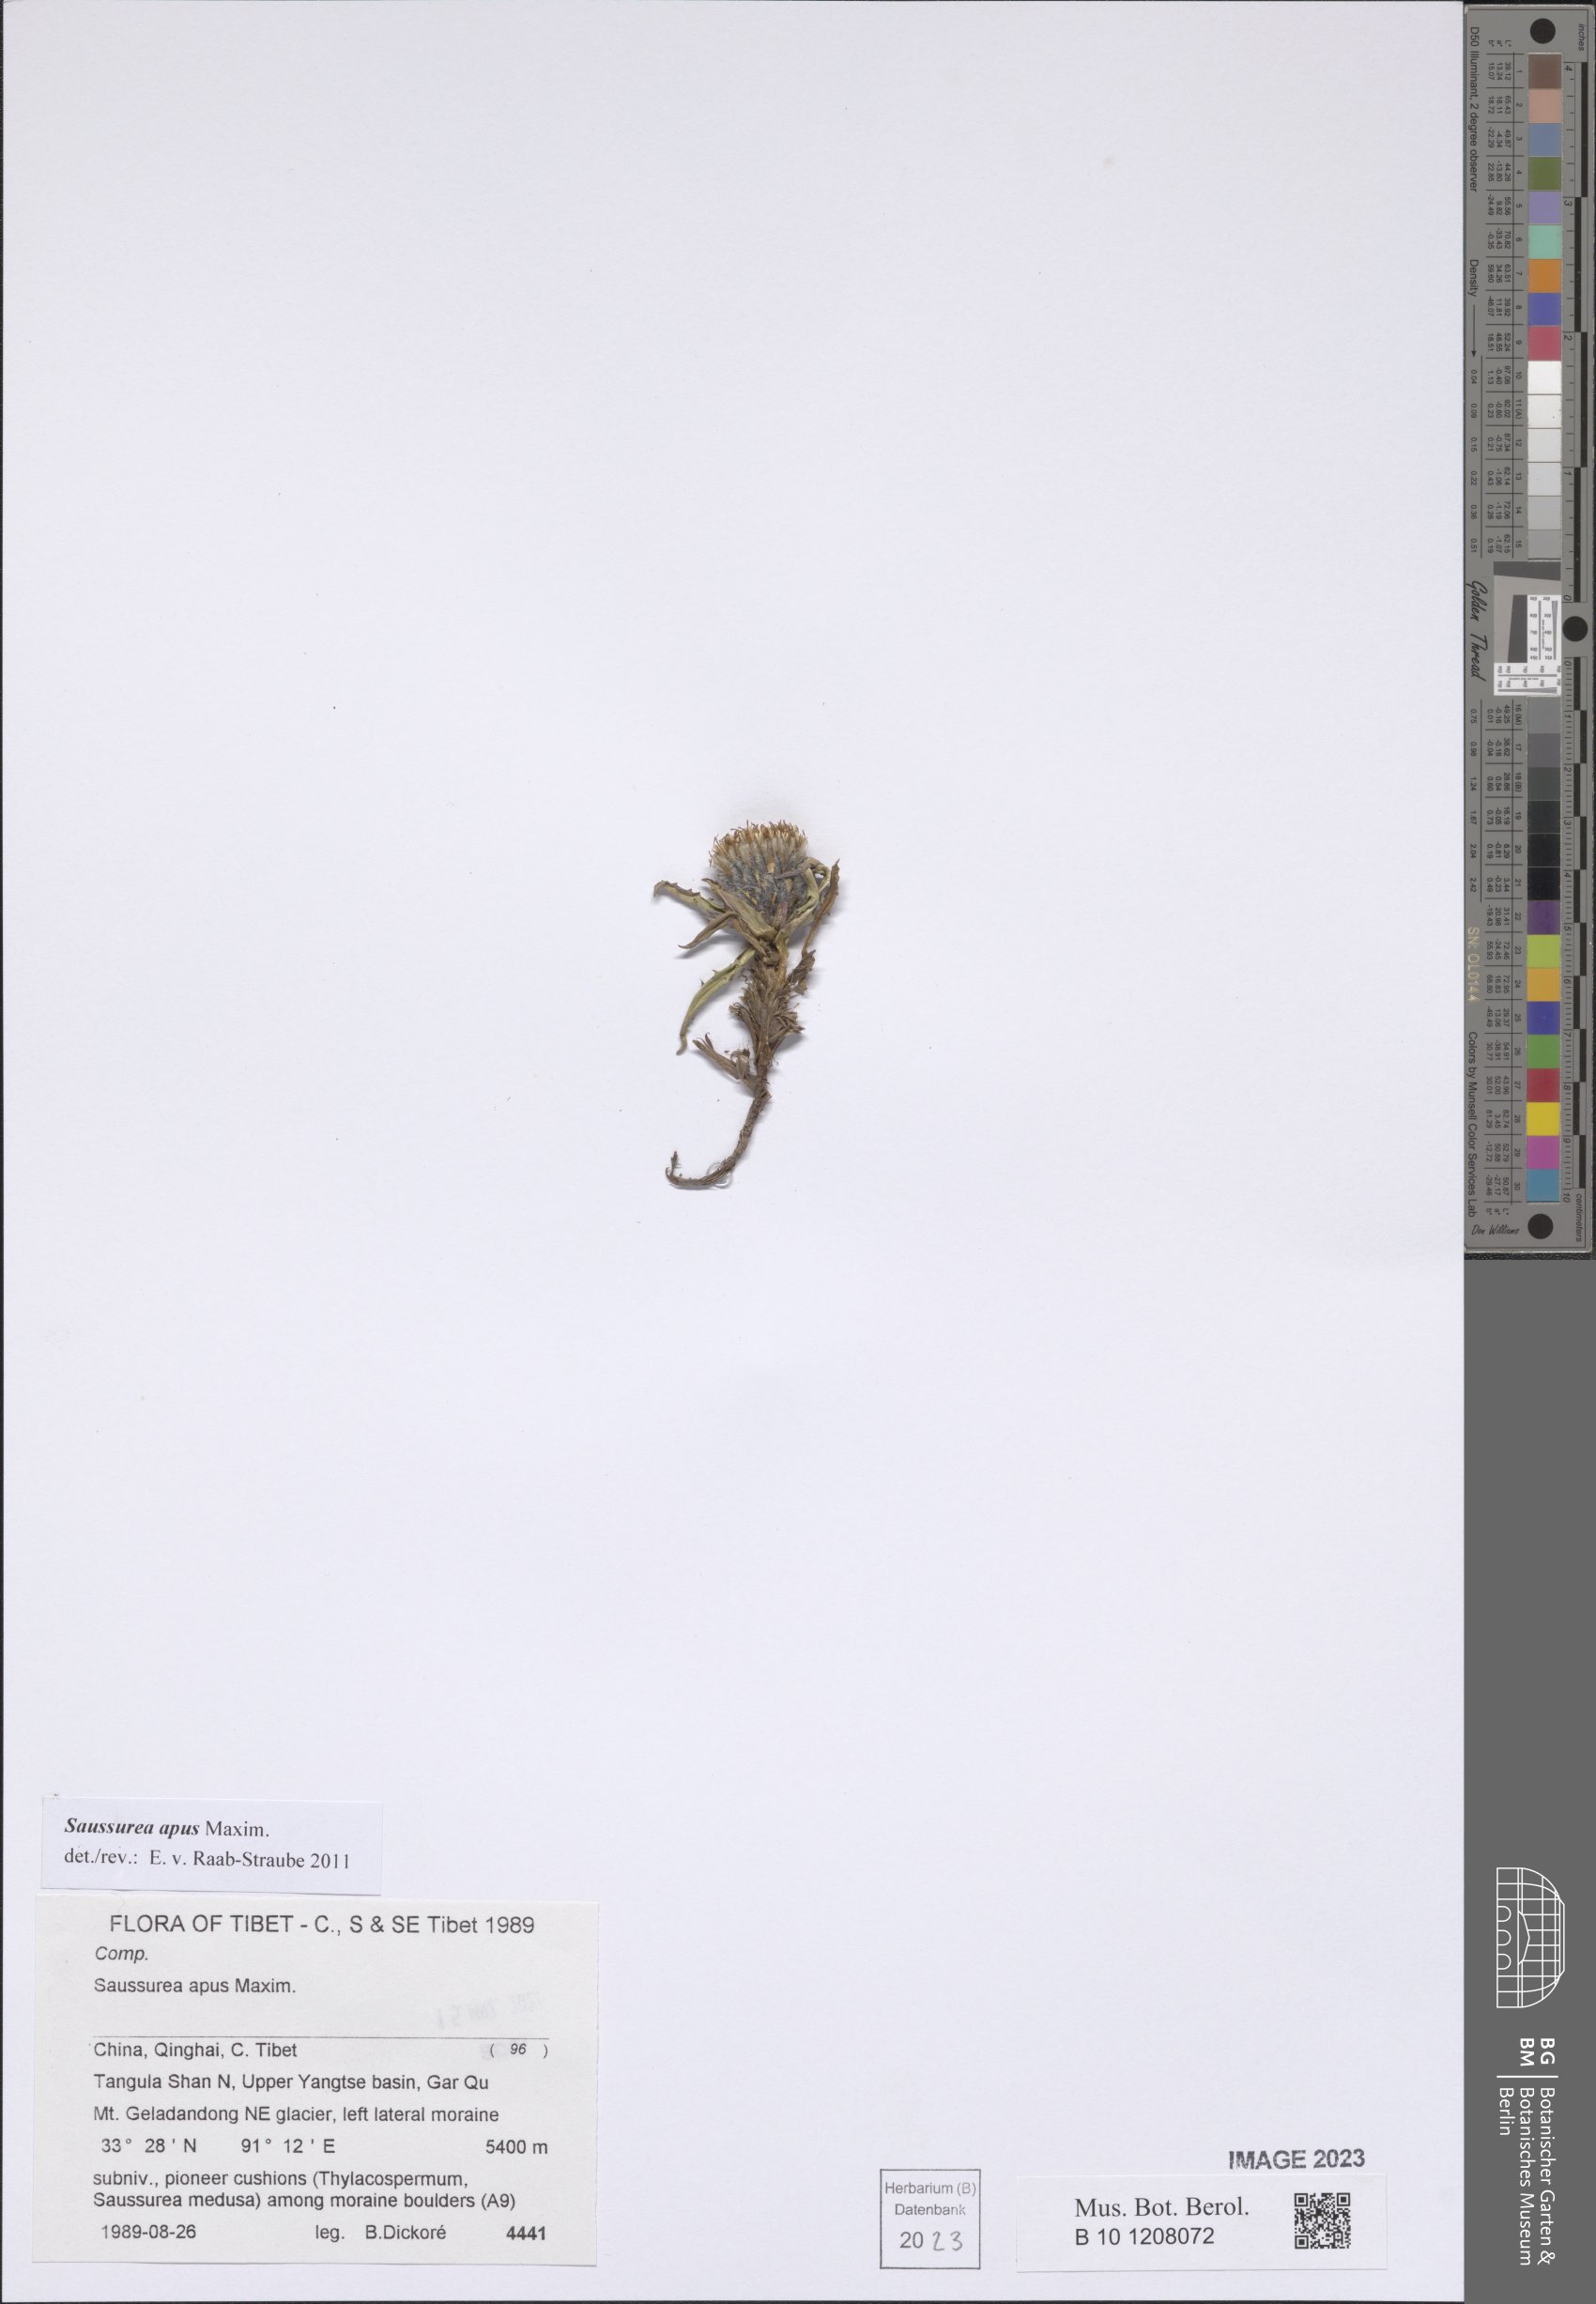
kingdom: Plantae
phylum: Tracheophyta
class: Magnoliopsida
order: Asterales
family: Asteraceae
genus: Saussurea
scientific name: Saussurea apus
